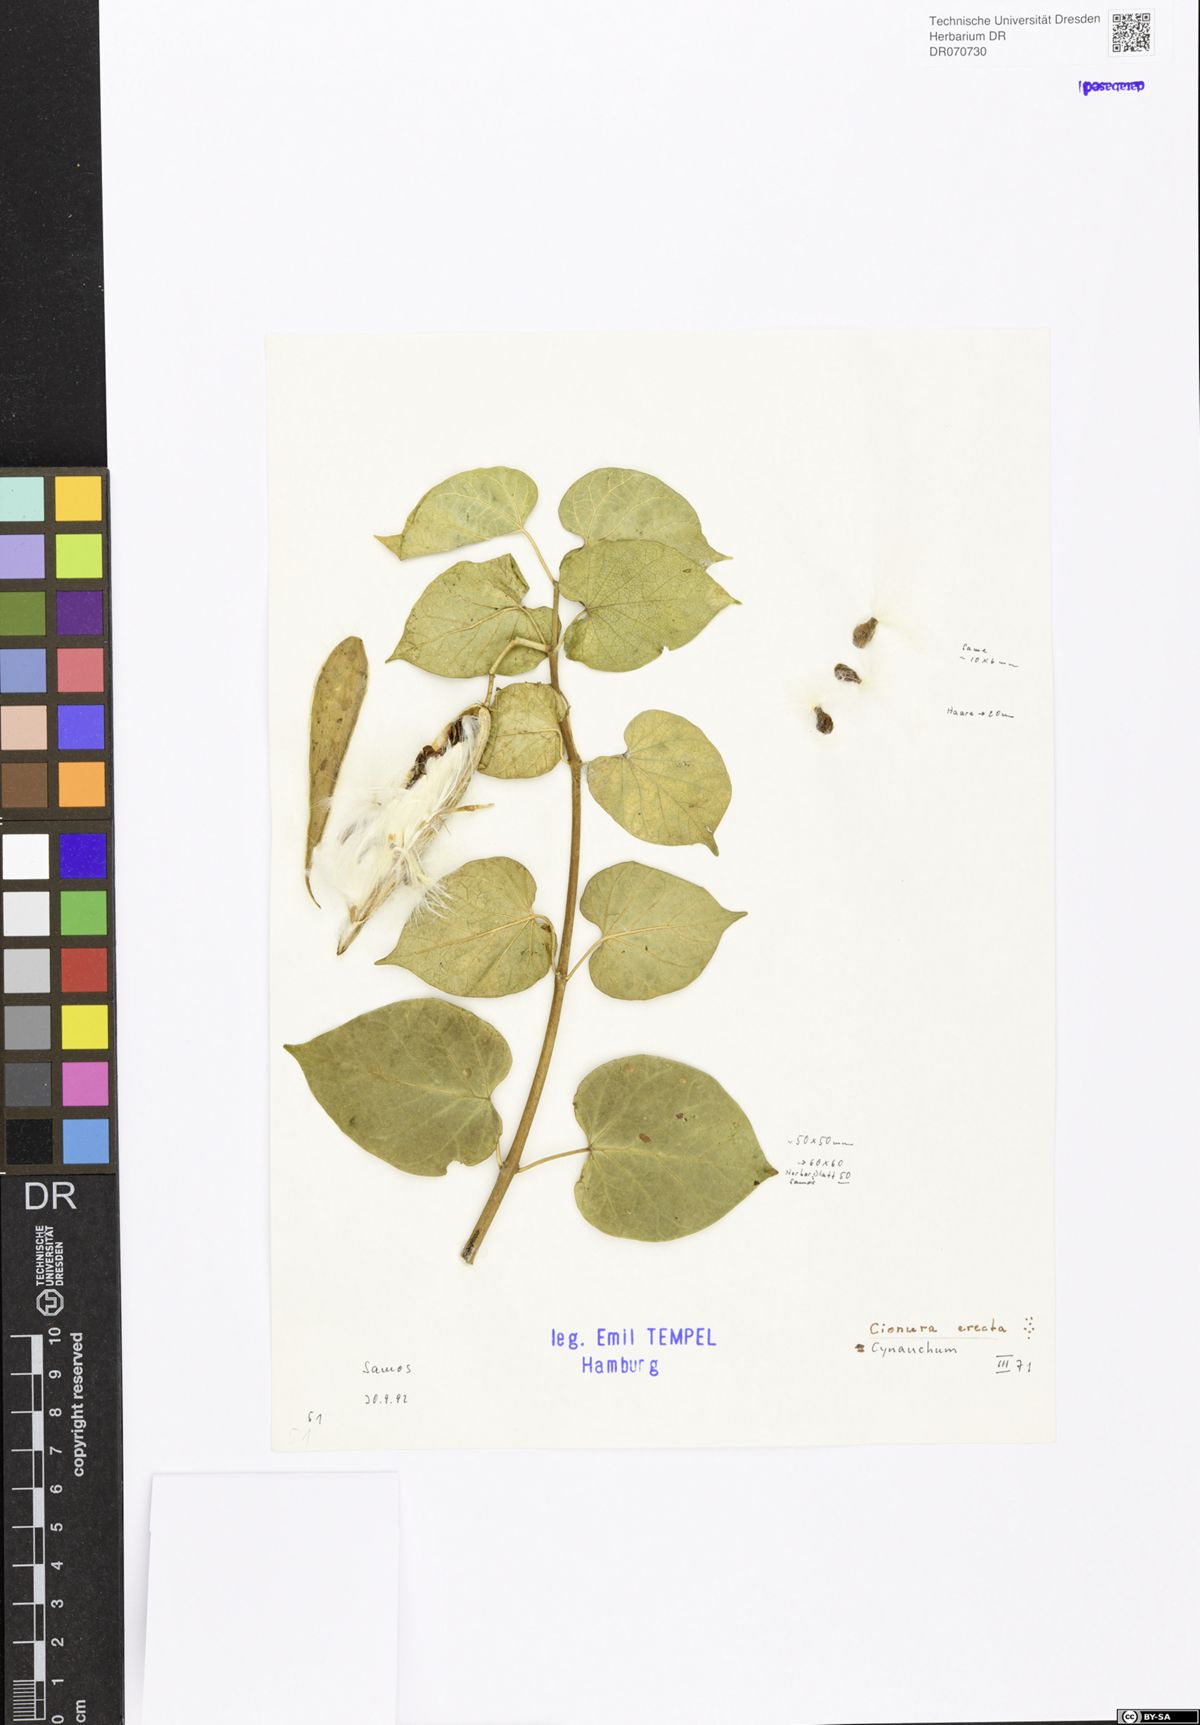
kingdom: Plantae
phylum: Tracheophyta
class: Magnoliopsida
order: Gentianales
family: Apocynaceae
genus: Cionura
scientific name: Cionura erecta
